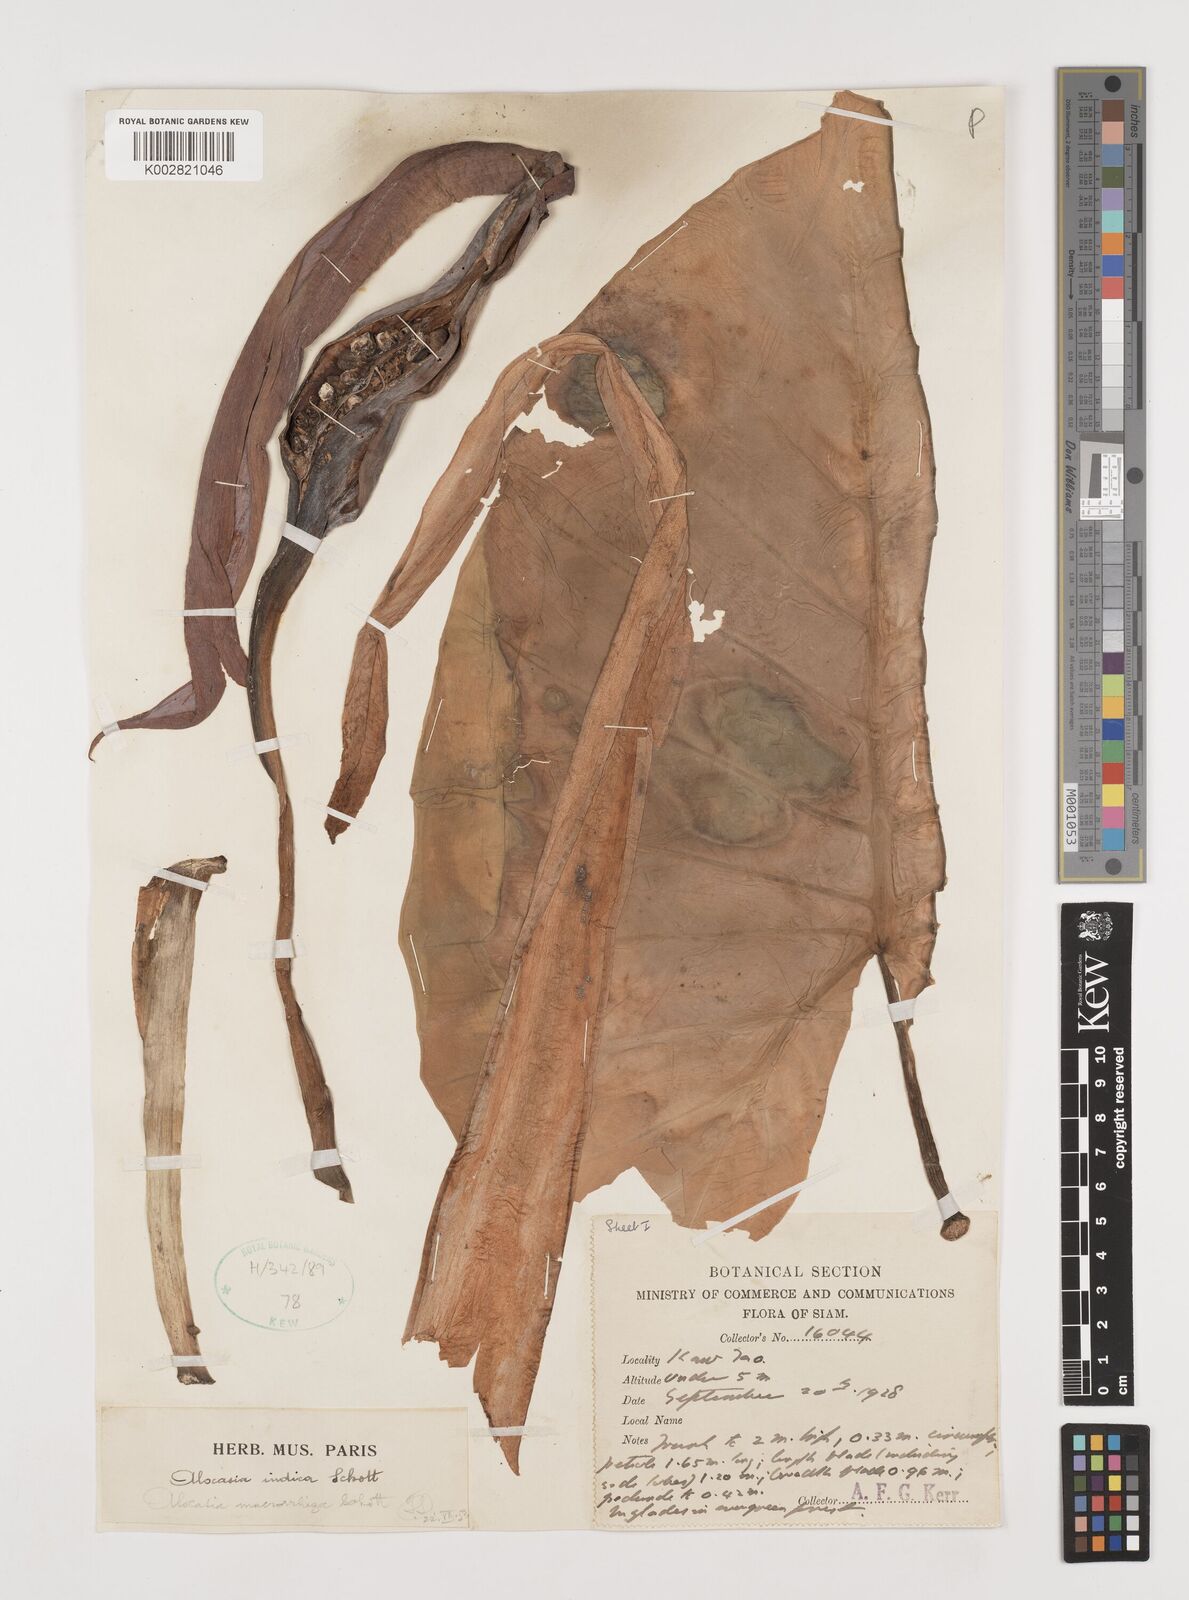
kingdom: Plantae
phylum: Tracheophyta
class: Liliopsida
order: Alismatales
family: Araceae
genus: Alocasia
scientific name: Alocasia macrorrhizos
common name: Giant taro
